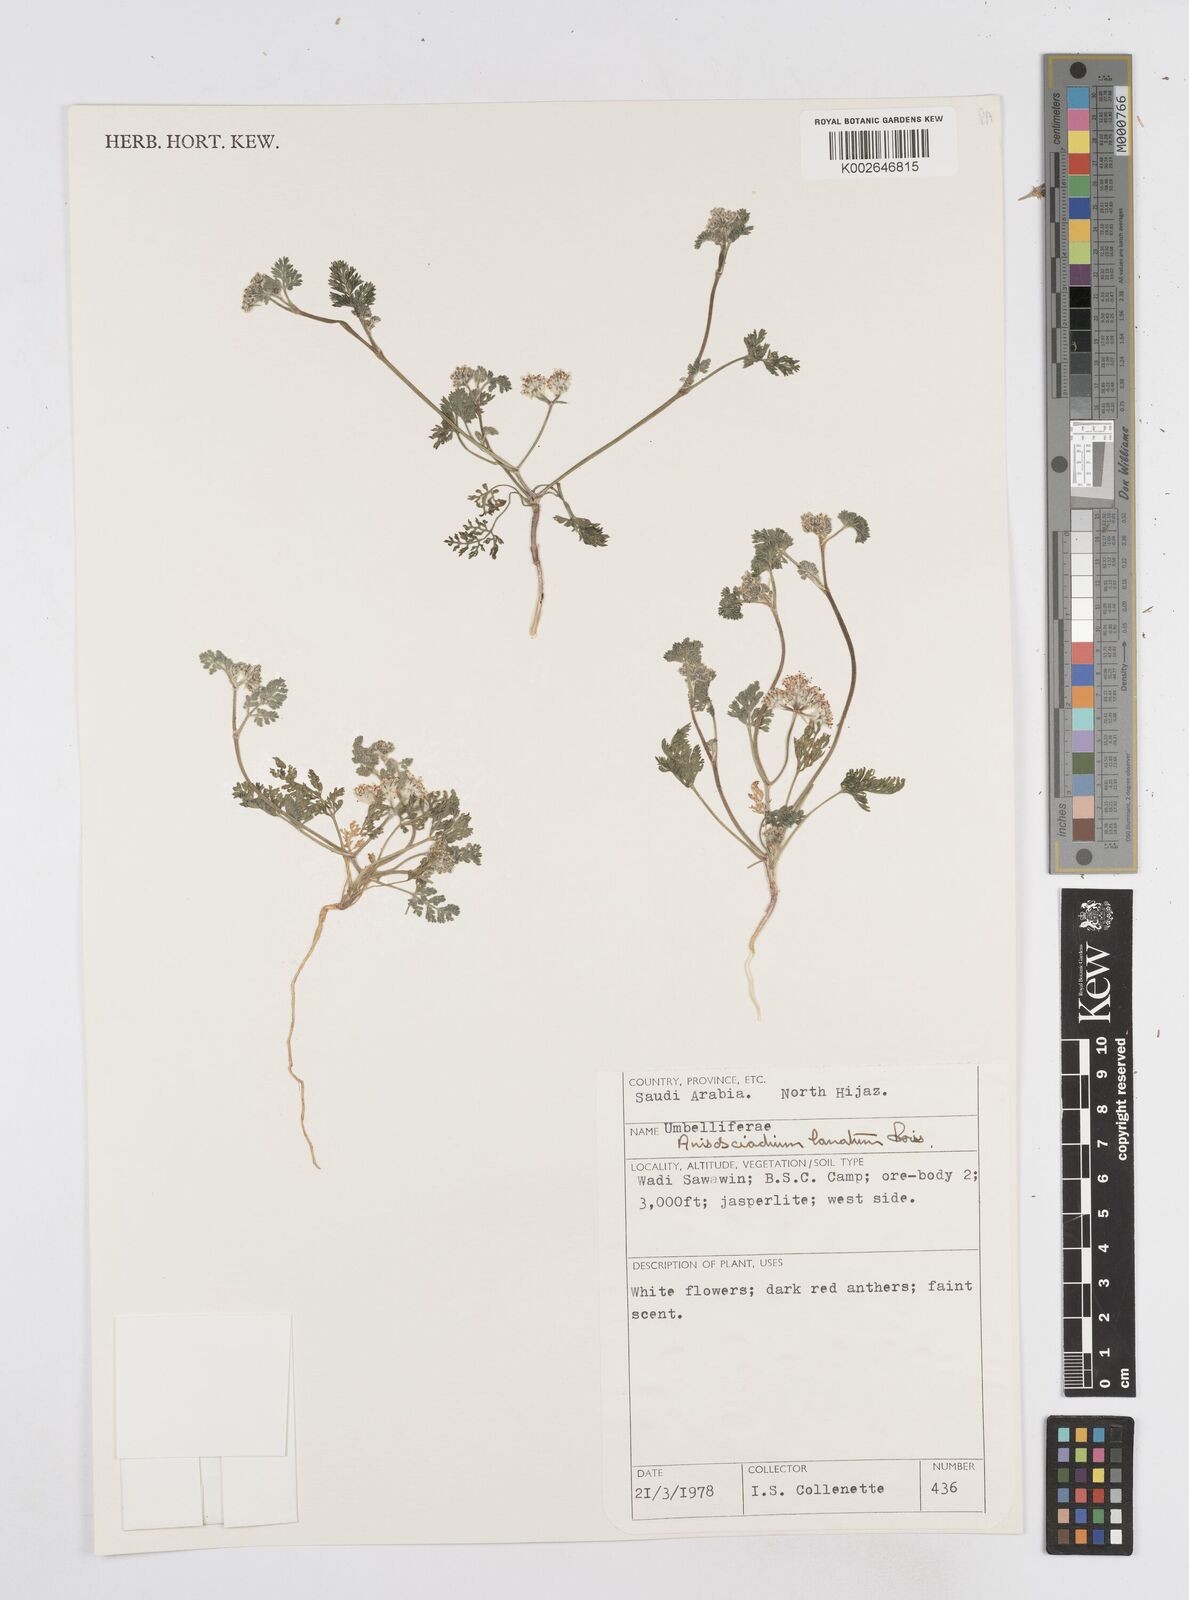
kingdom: Plantae
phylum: Tracheophyta
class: Magnoliopsida
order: Apiales
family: Apiaceae
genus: Anisosciadium
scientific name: Anisosciadium lanatum
